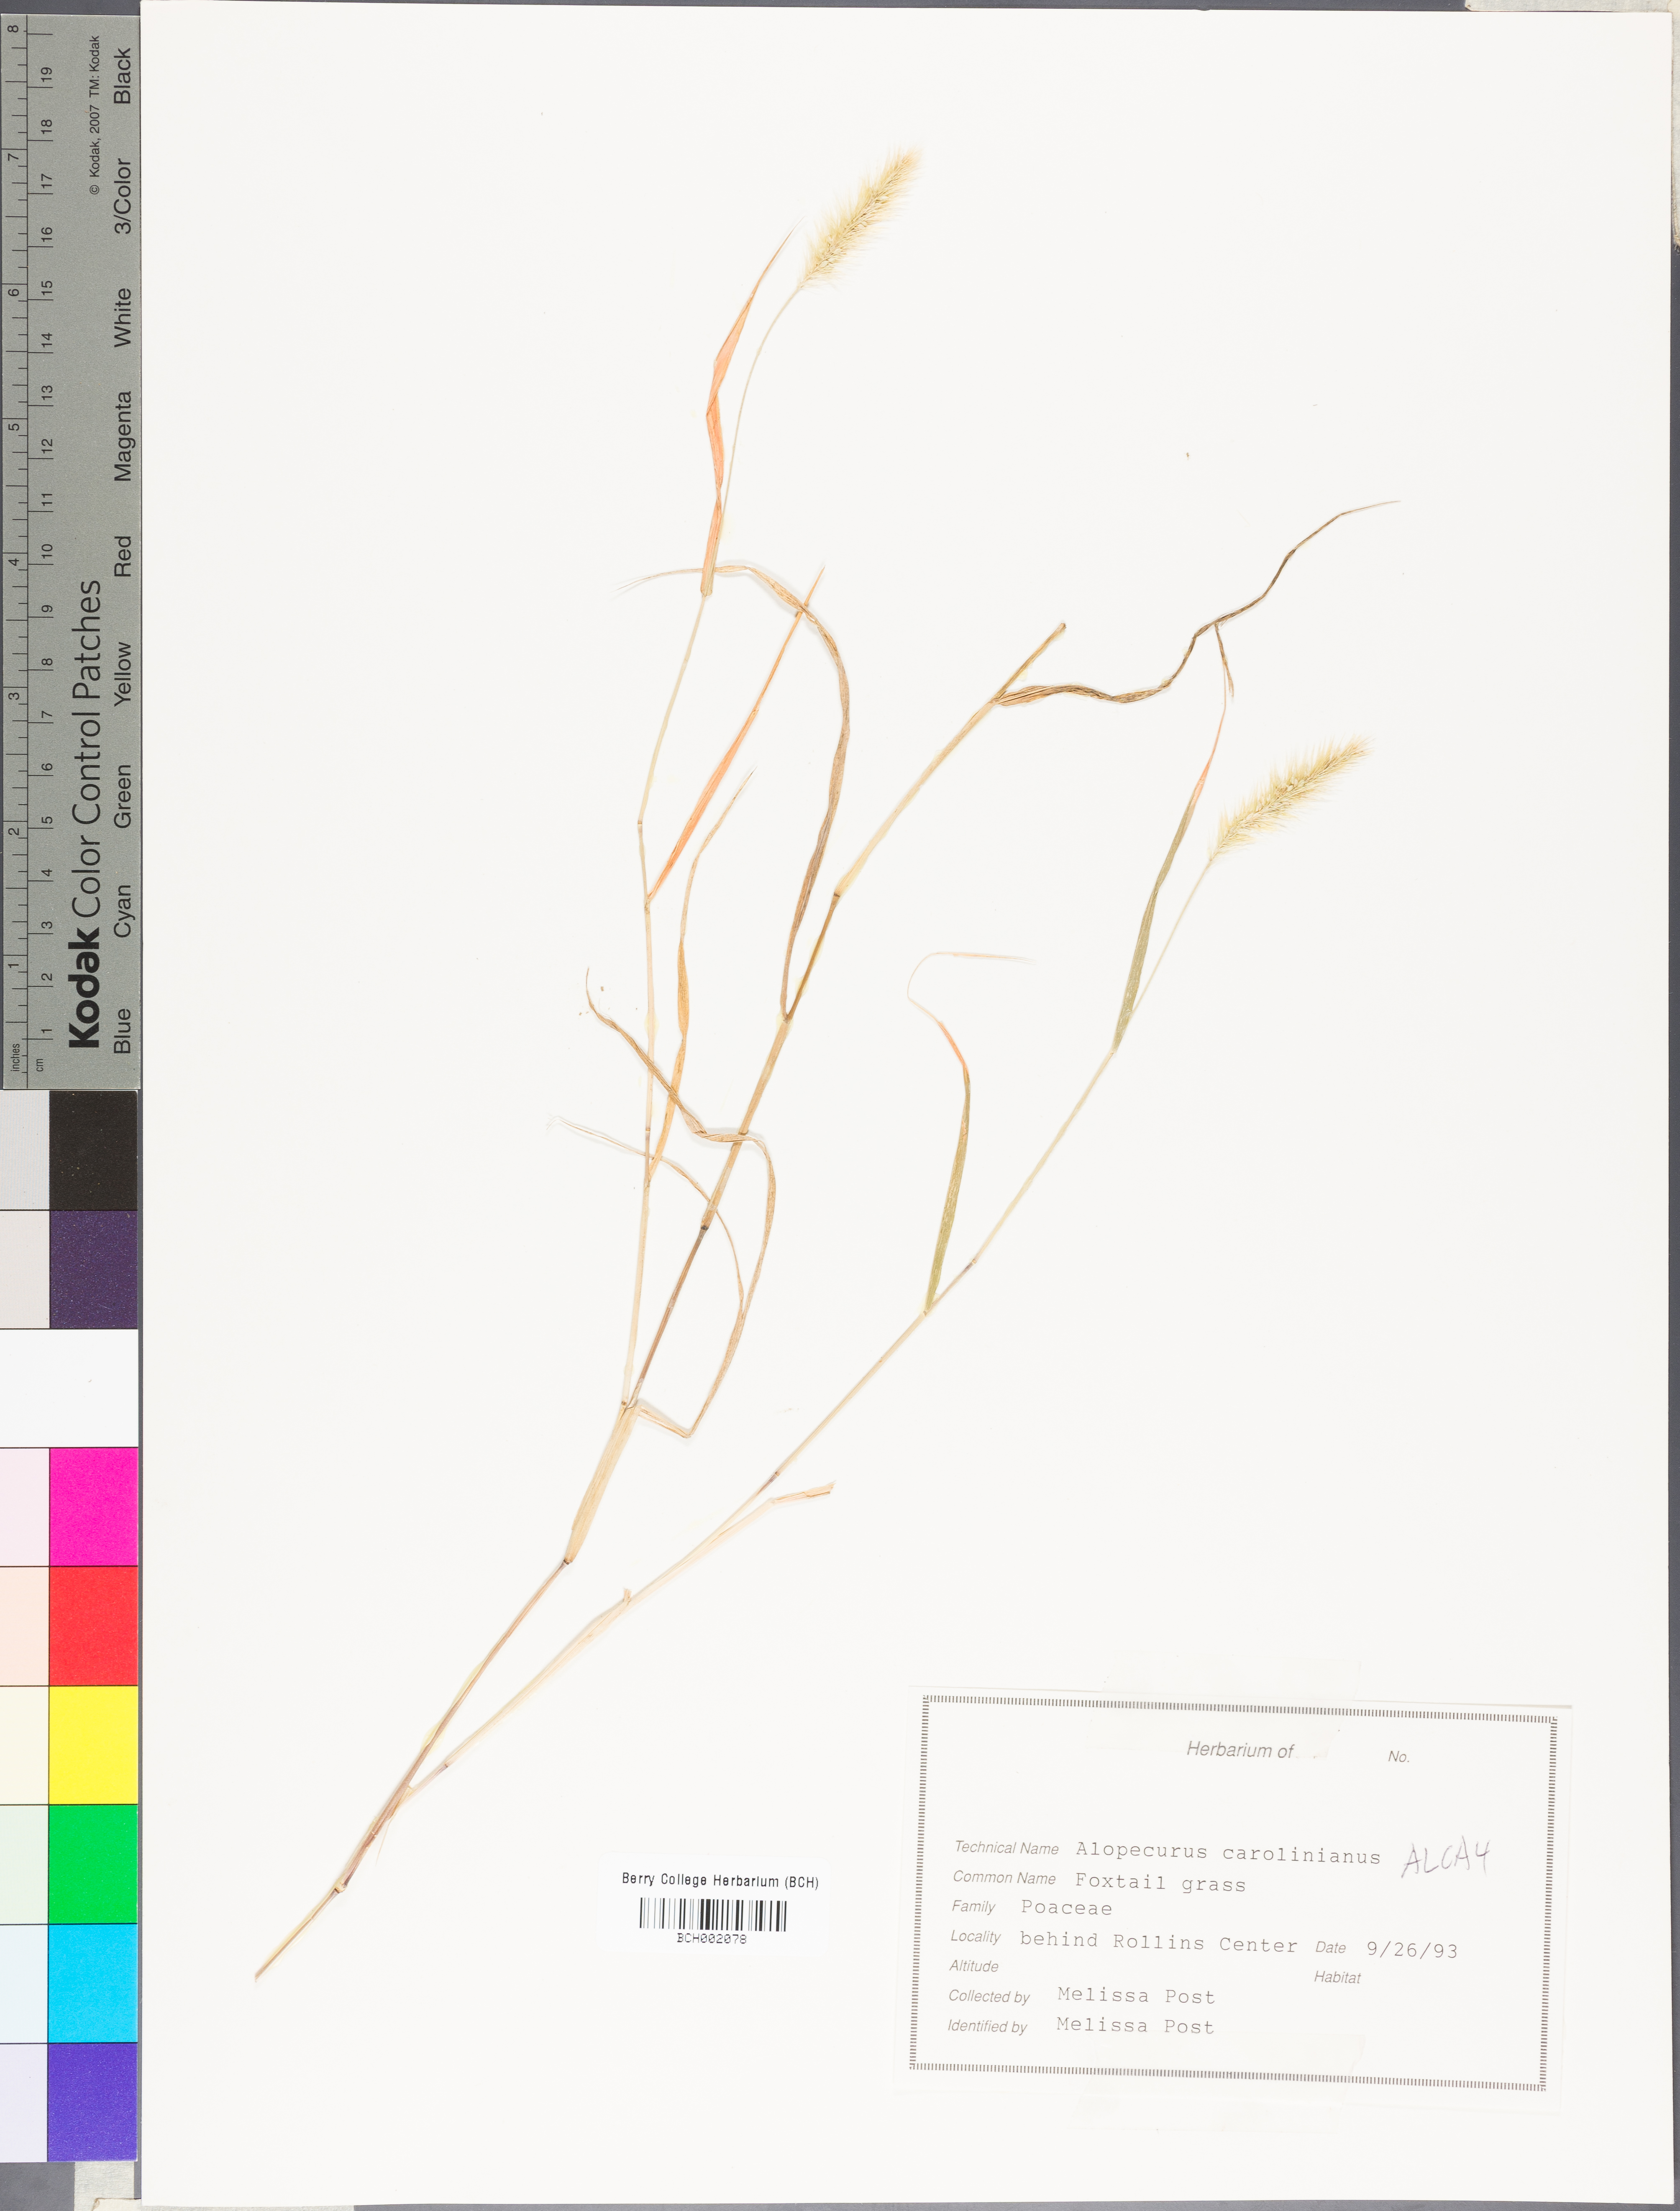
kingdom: Plantae
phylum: Tracheophyta
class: Liliopsida
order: Poales
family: Poaceae
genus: Alopecurus
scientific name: Alopecurus carolinianus
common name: Tufted foxtail
